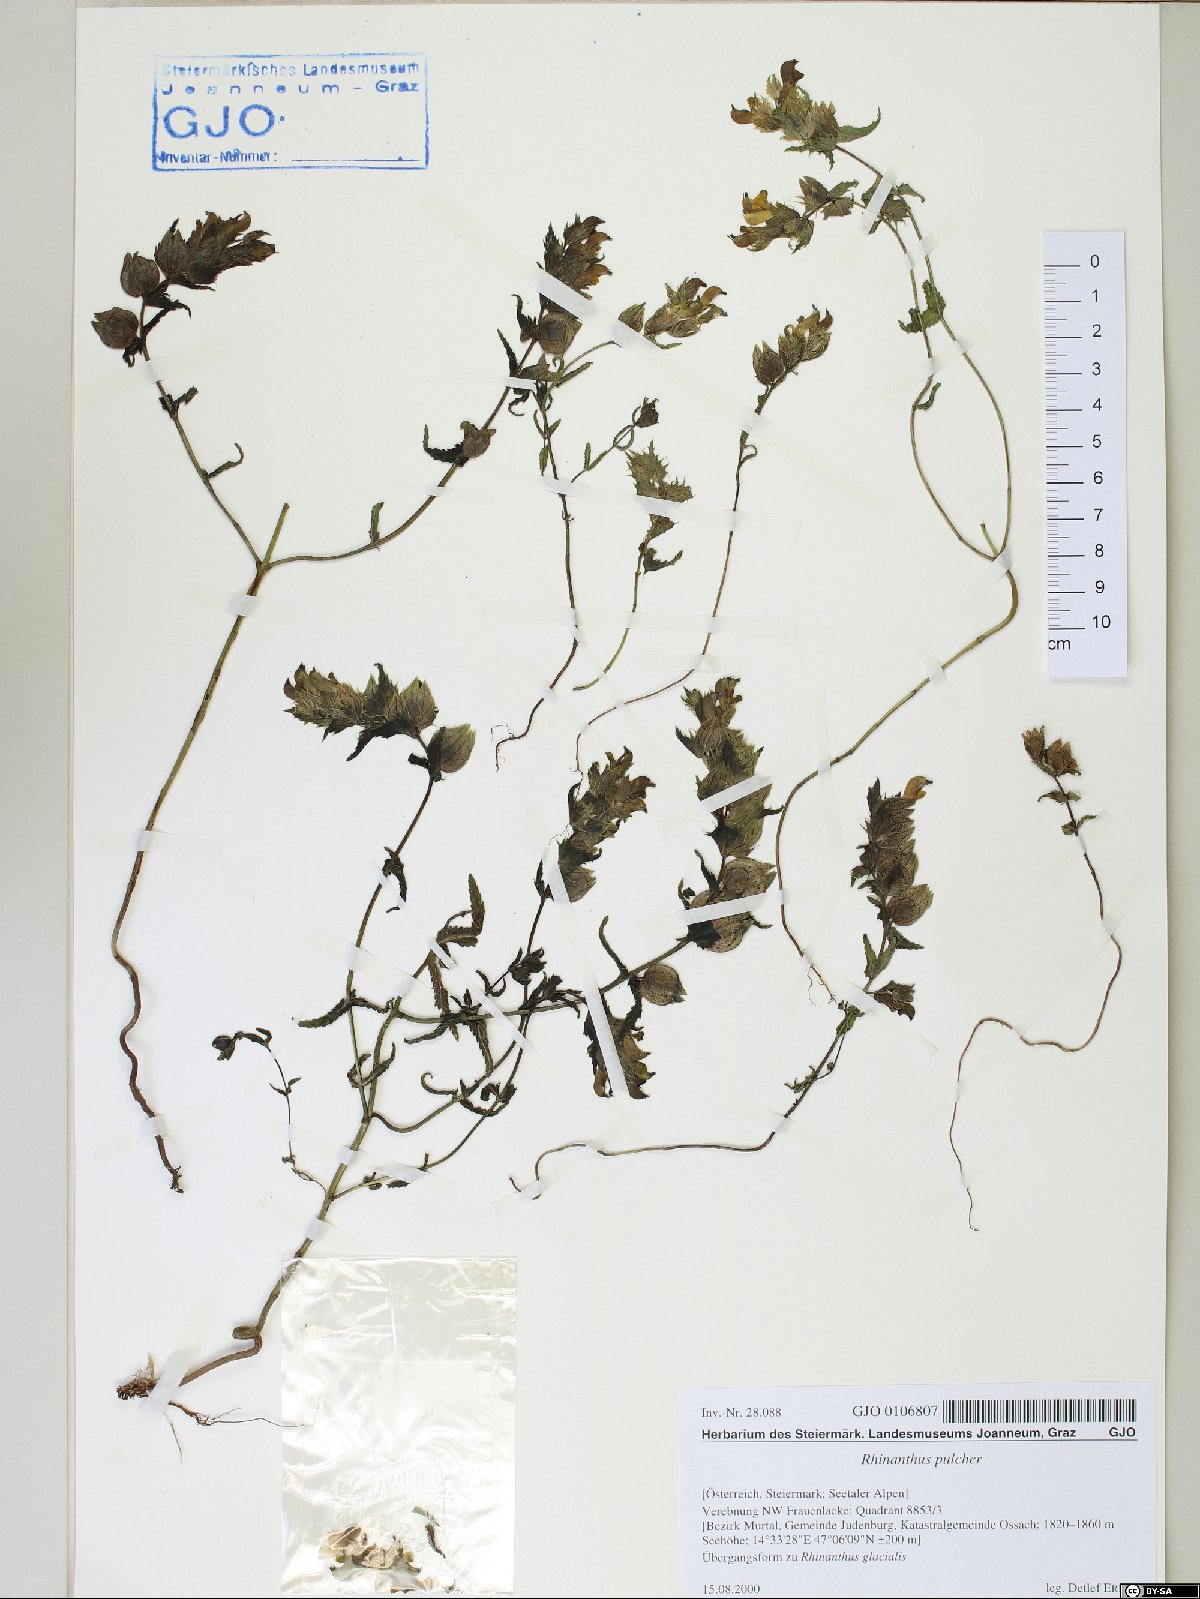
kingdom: Plantae
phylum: Tracheophyta
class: Magnoliopsida
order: Lamiales
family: Orobanchaceae
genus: Rhinanthus
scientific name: Rhinanthus riphaeus
